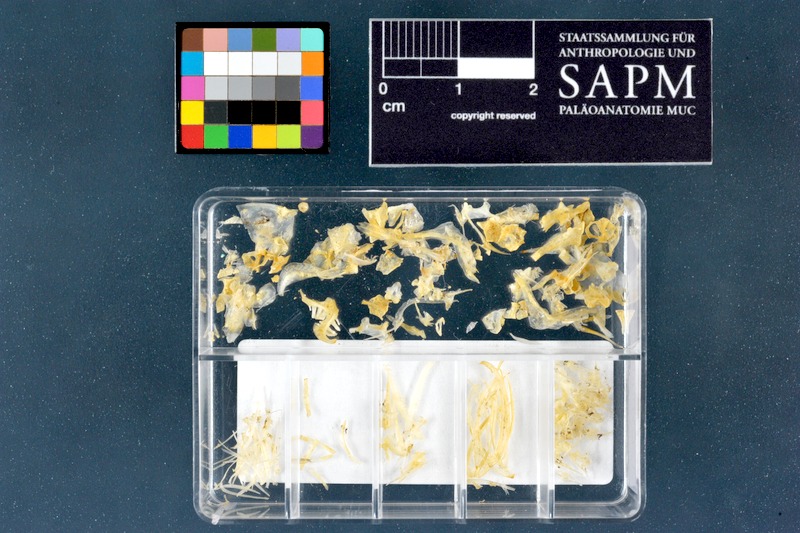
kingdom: Animalia
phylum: Chordata
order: Cypriniformes
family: Cyprinidae
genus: Cyprinion
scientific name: Cyprinion kais
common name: Smallmouth lotak
